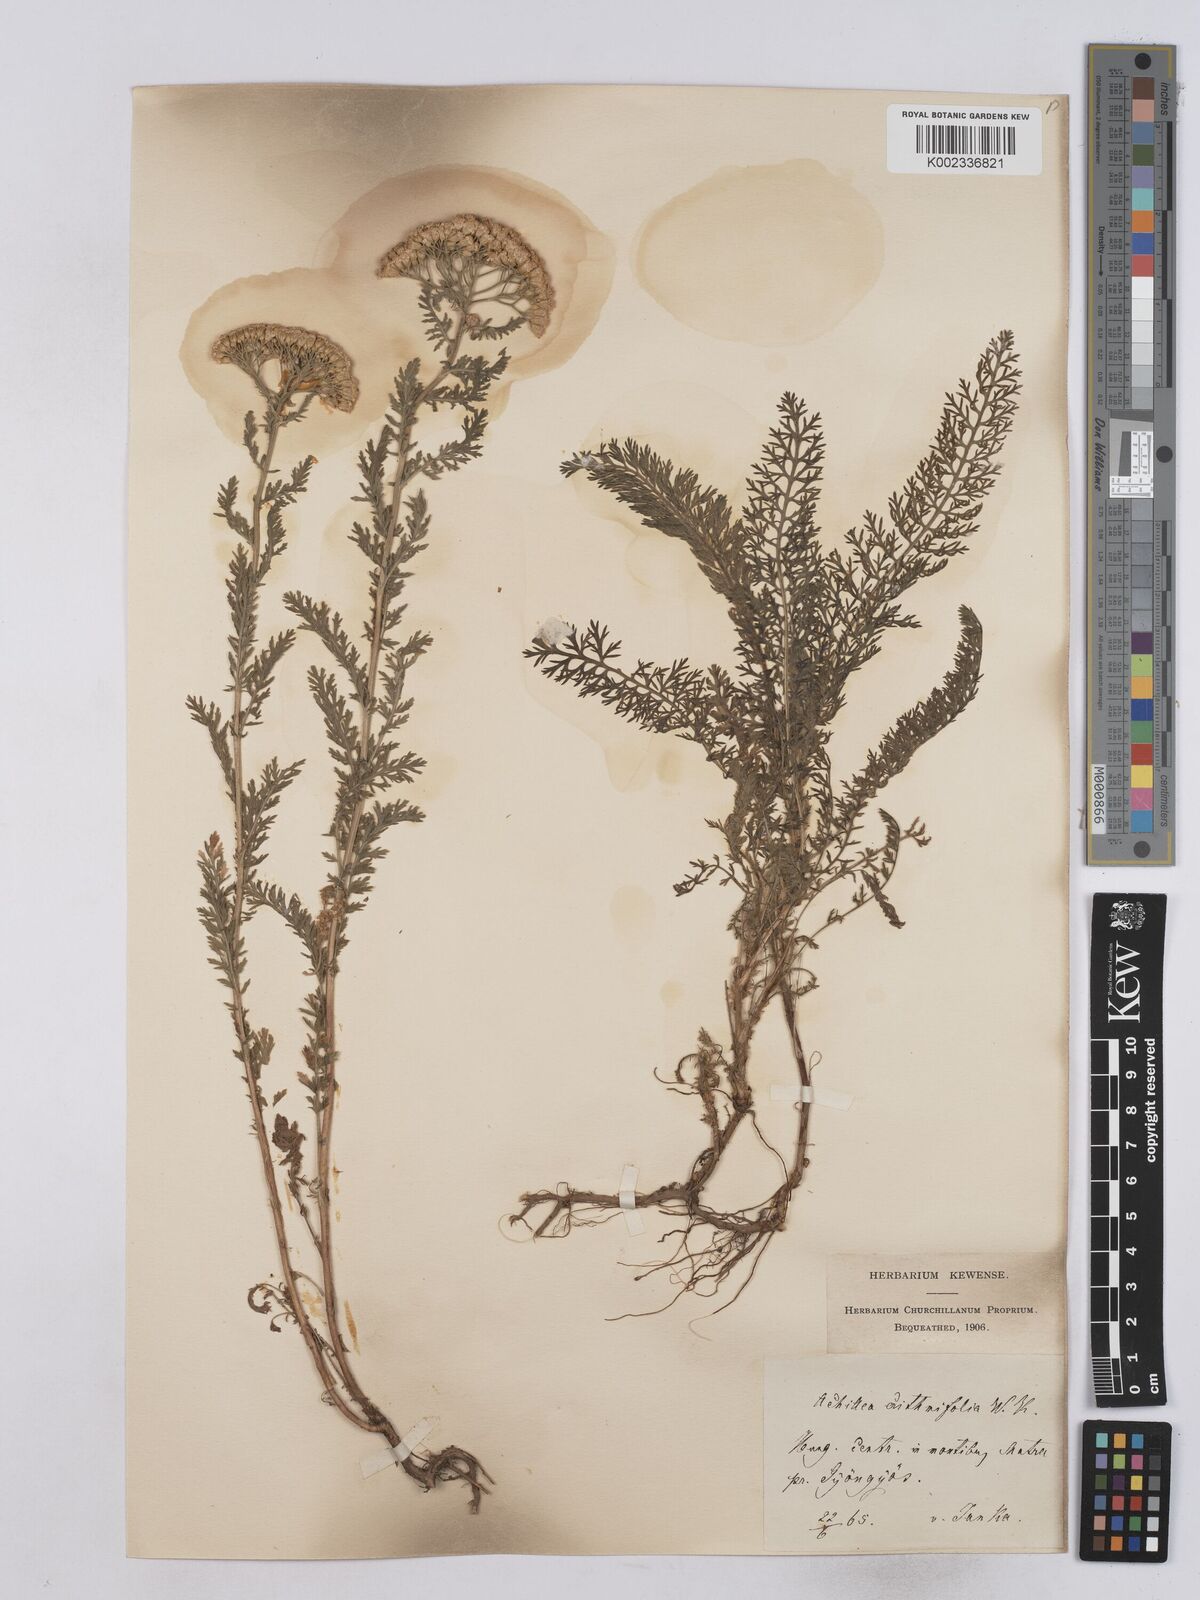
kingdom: Plantae
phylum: Tracheophyta
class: Magnoliopsida
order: Asterales
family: Asteraceae
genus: Achillea
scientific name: Achillea crithmifolia
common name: Yarrow
